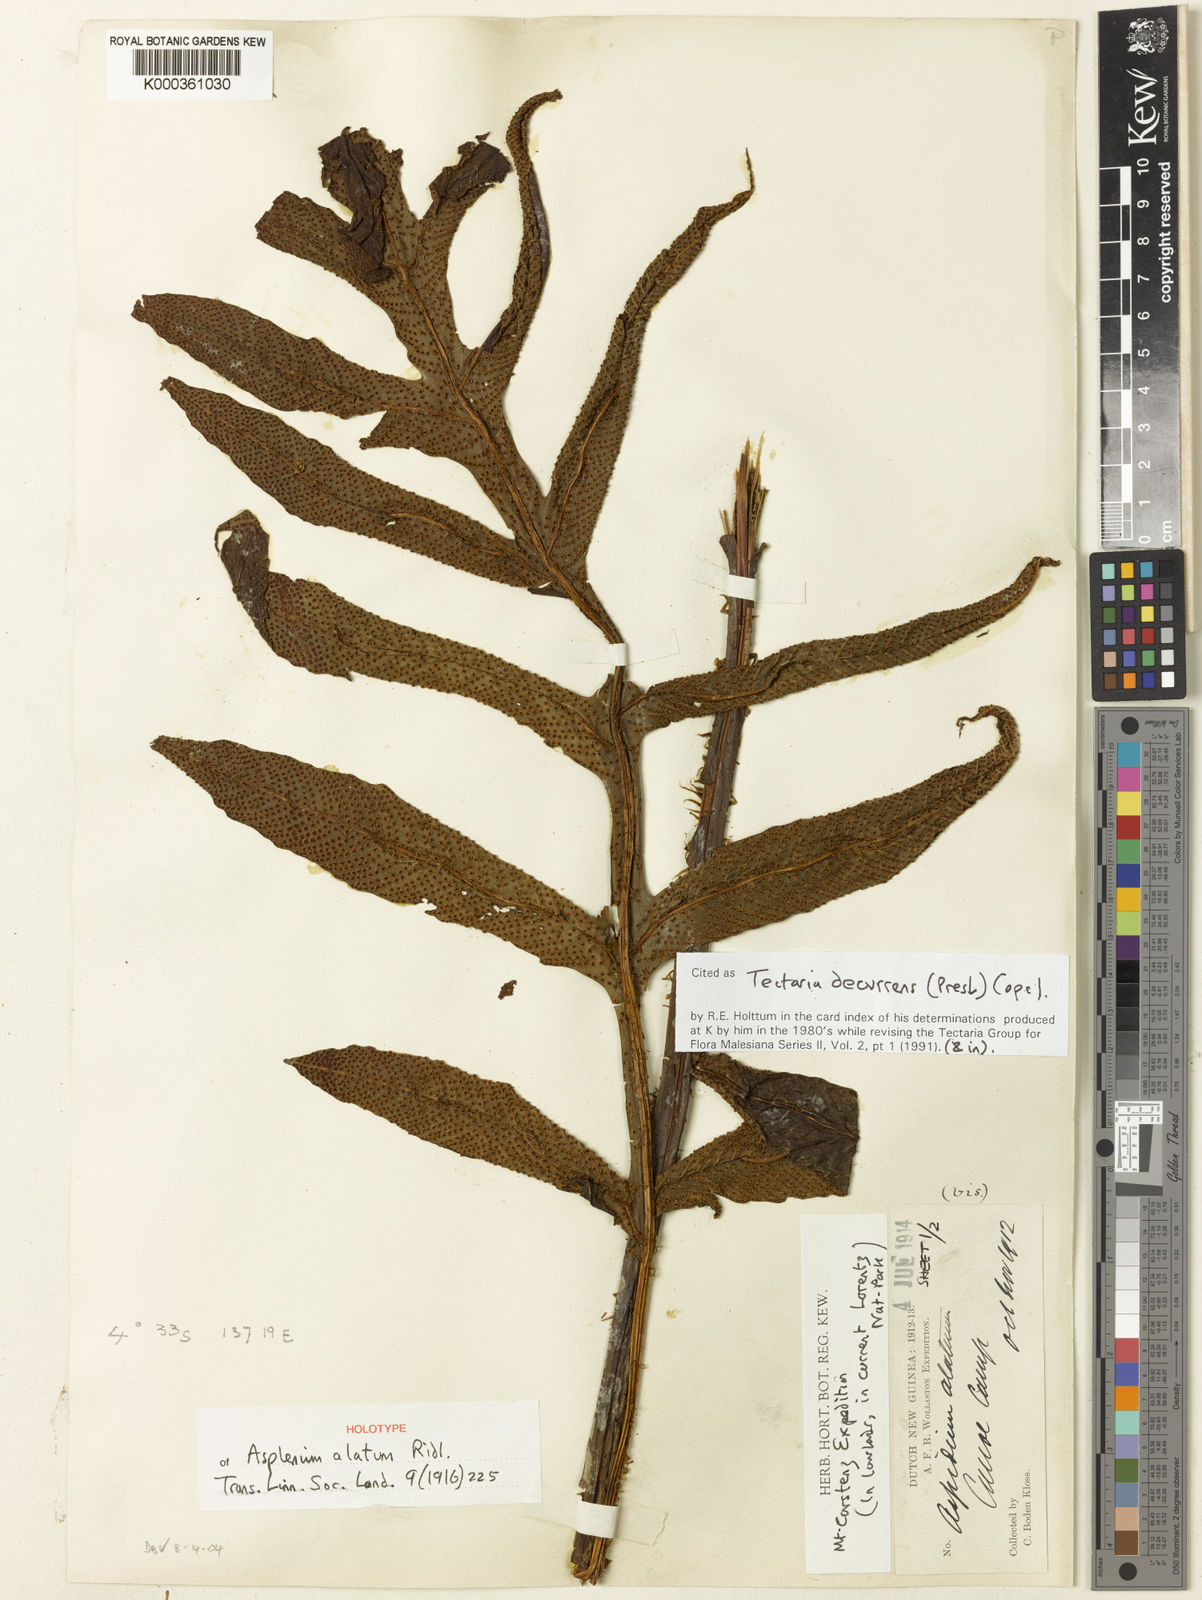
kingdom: Plantae
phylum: Tracheophyta
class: Polypodiopsida
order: Polypodiales
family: Tectariaceae
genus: Tectaria
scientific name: Tectaria decurrens
